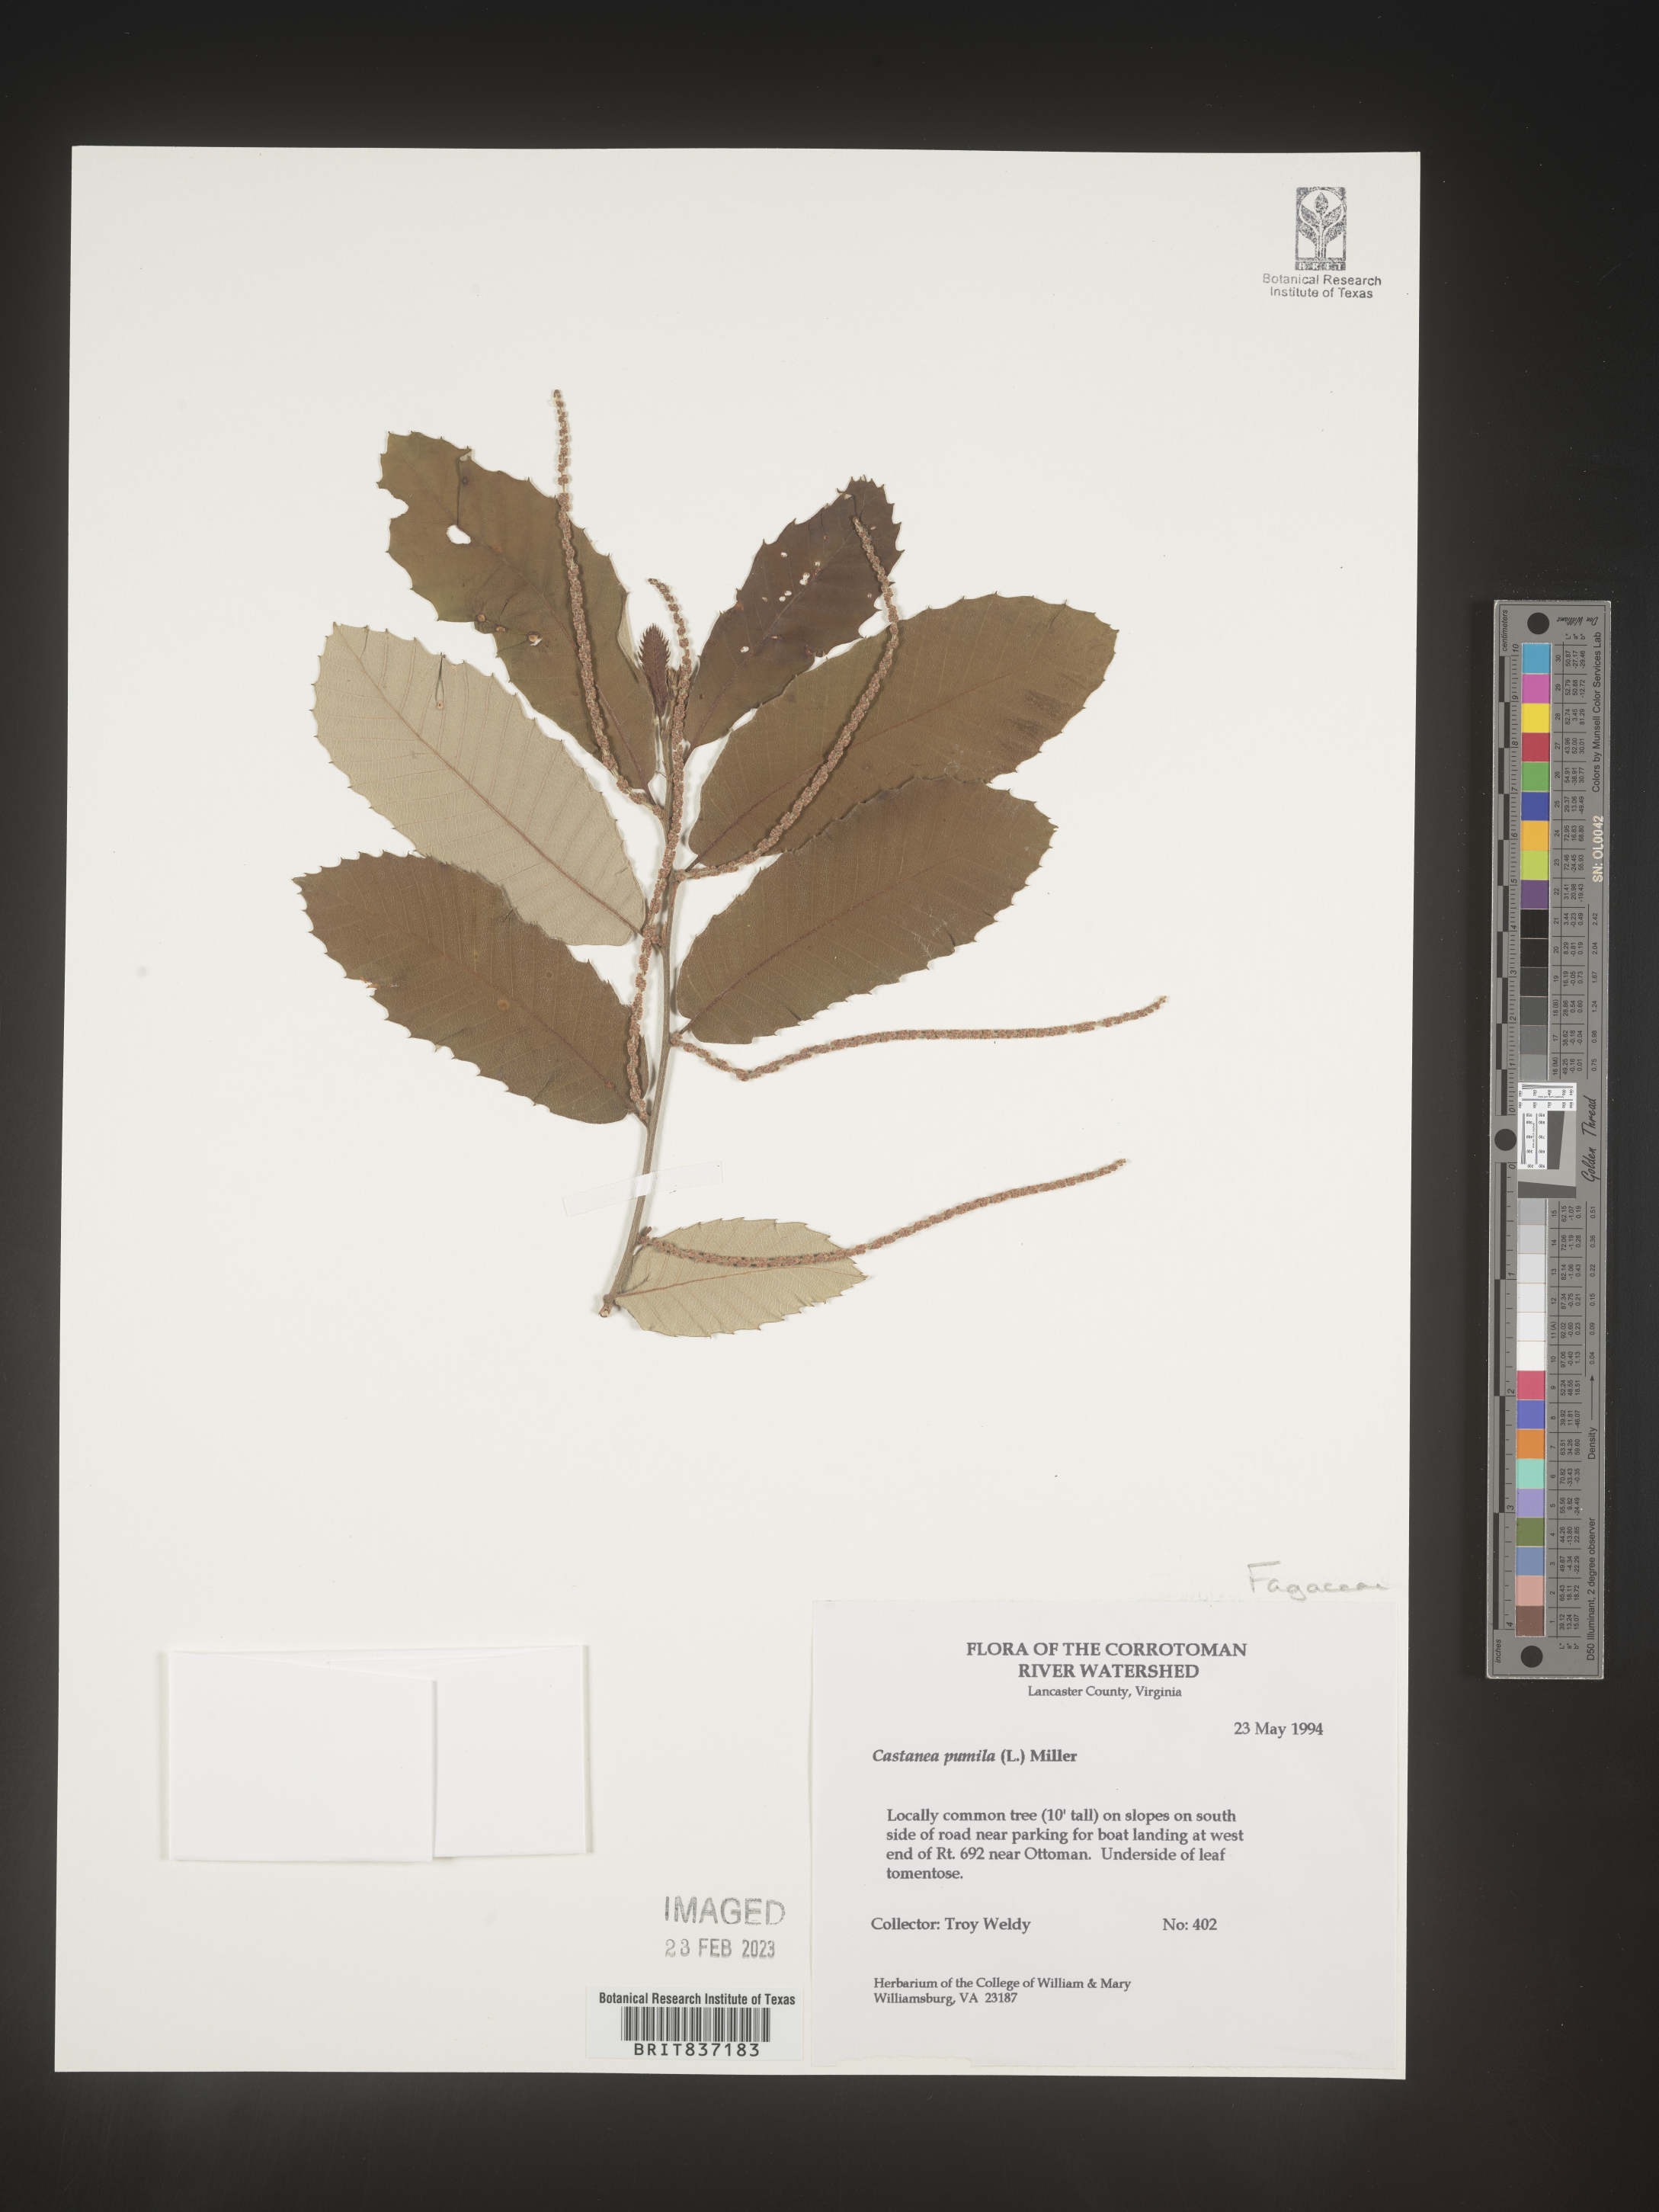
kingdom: Plantae
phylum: Tracheophyta
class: Magnoliopsida
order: Fagales
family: Fagaceae
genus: Castanea
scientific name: Castanea pumila
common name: Chinkapin
